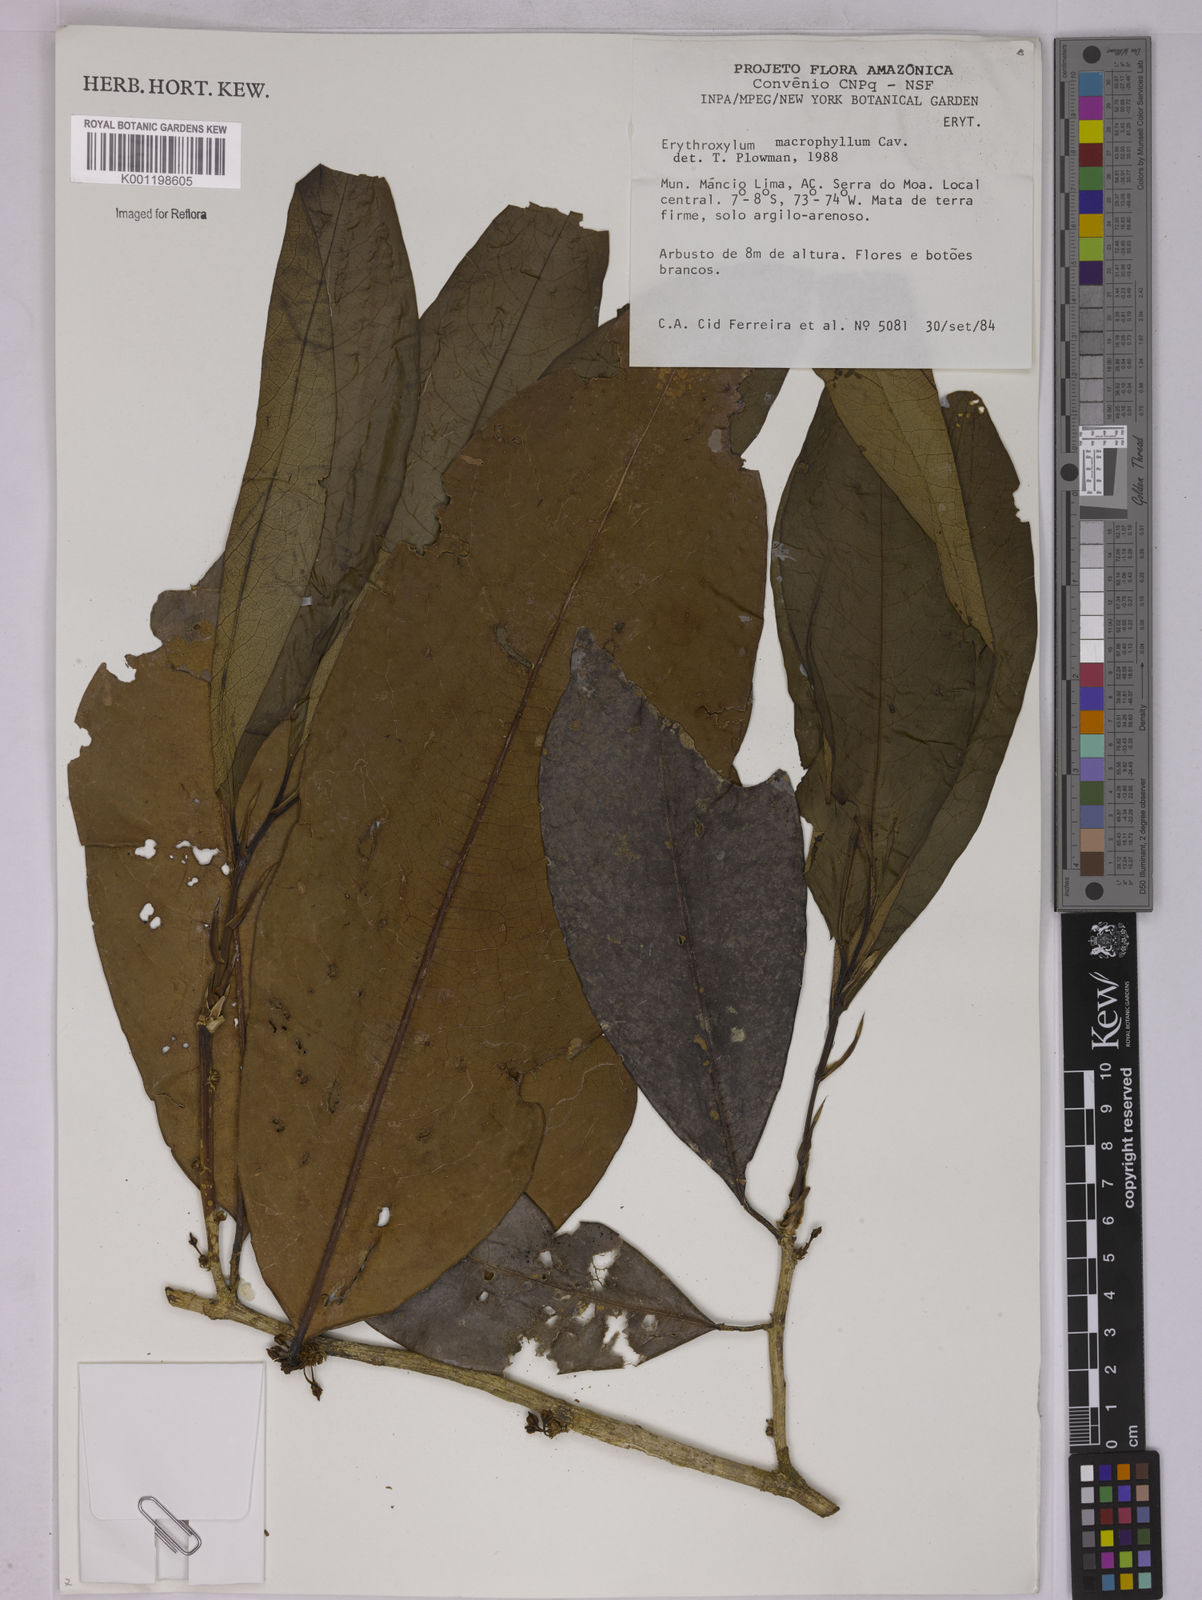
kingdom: Plantae
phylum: Tracheophyta
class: Magnoliopsida
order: Malpighiales
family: Erythroxylaceae
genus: Erythroxylum
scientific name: Erythroxylum macrophyllum
